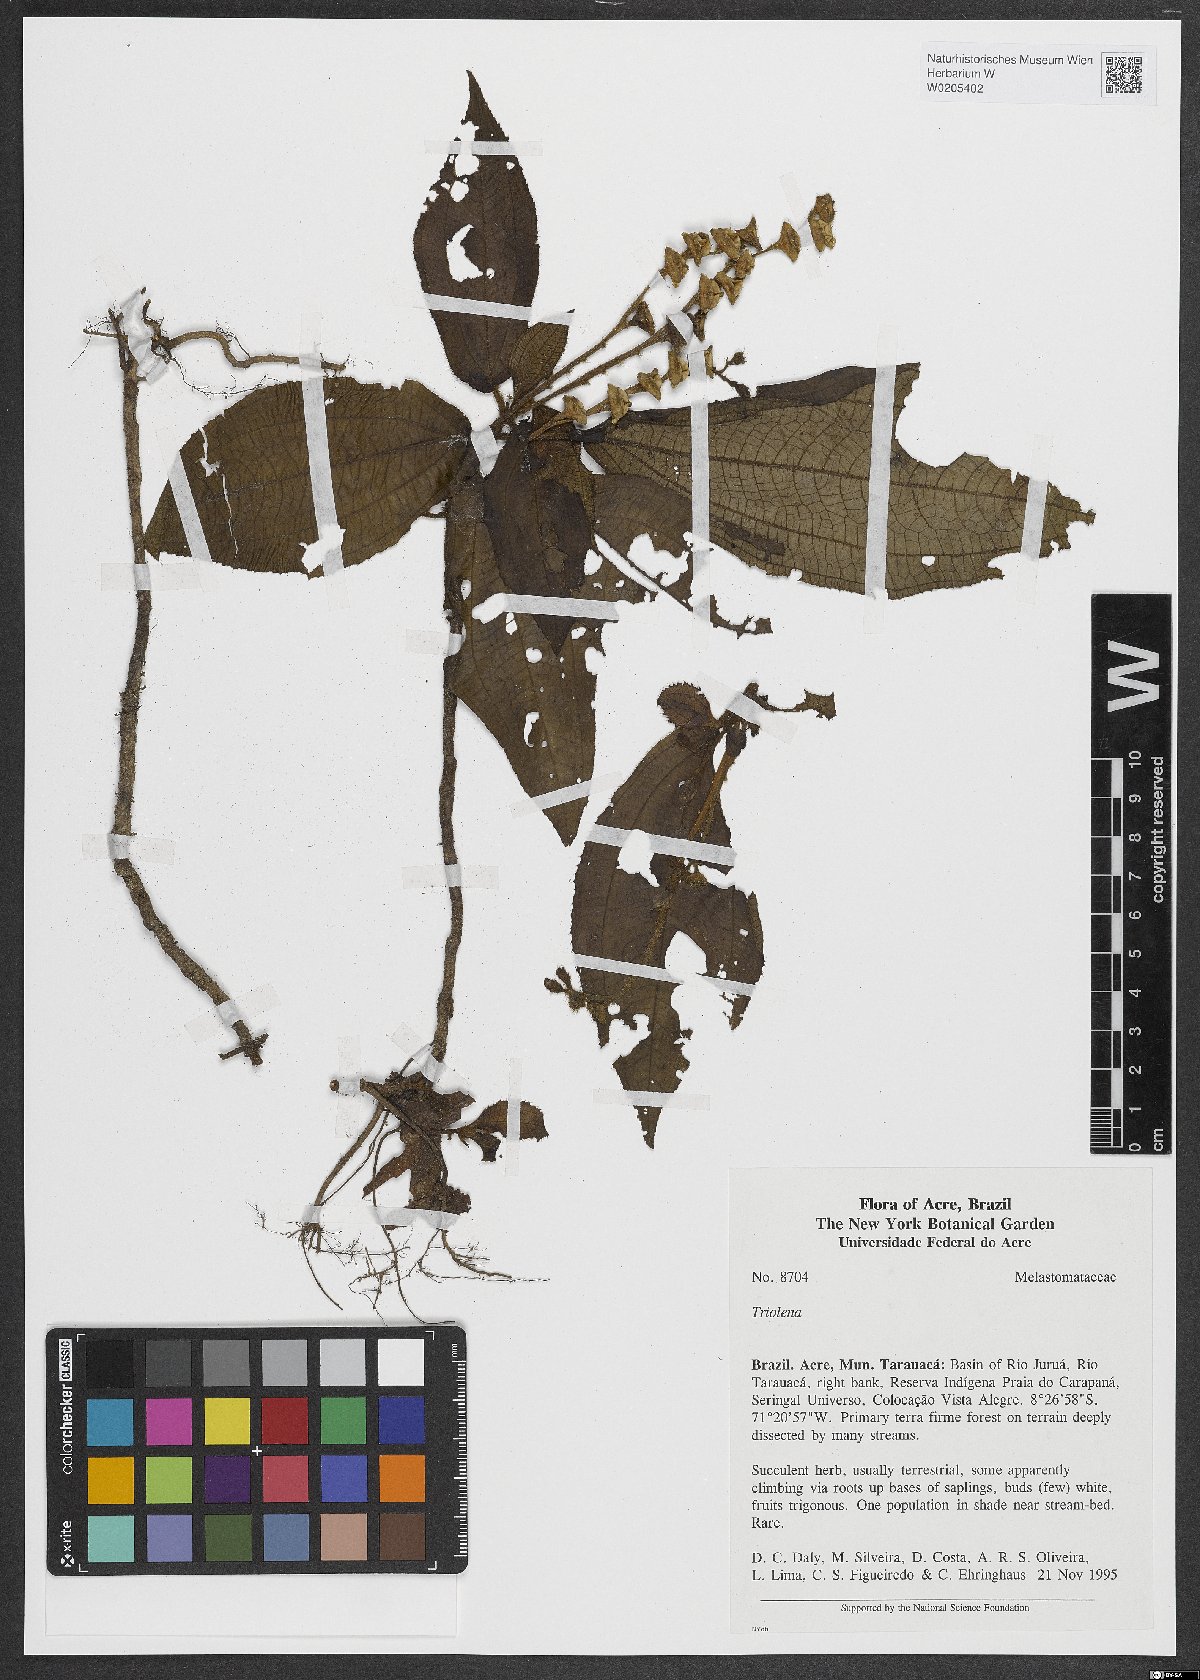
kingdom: Plantae
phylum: Tracheophyta
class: Magnoliopsida
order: Myrtales
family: Melastomataceae
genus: Triolena
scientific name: Triolena
